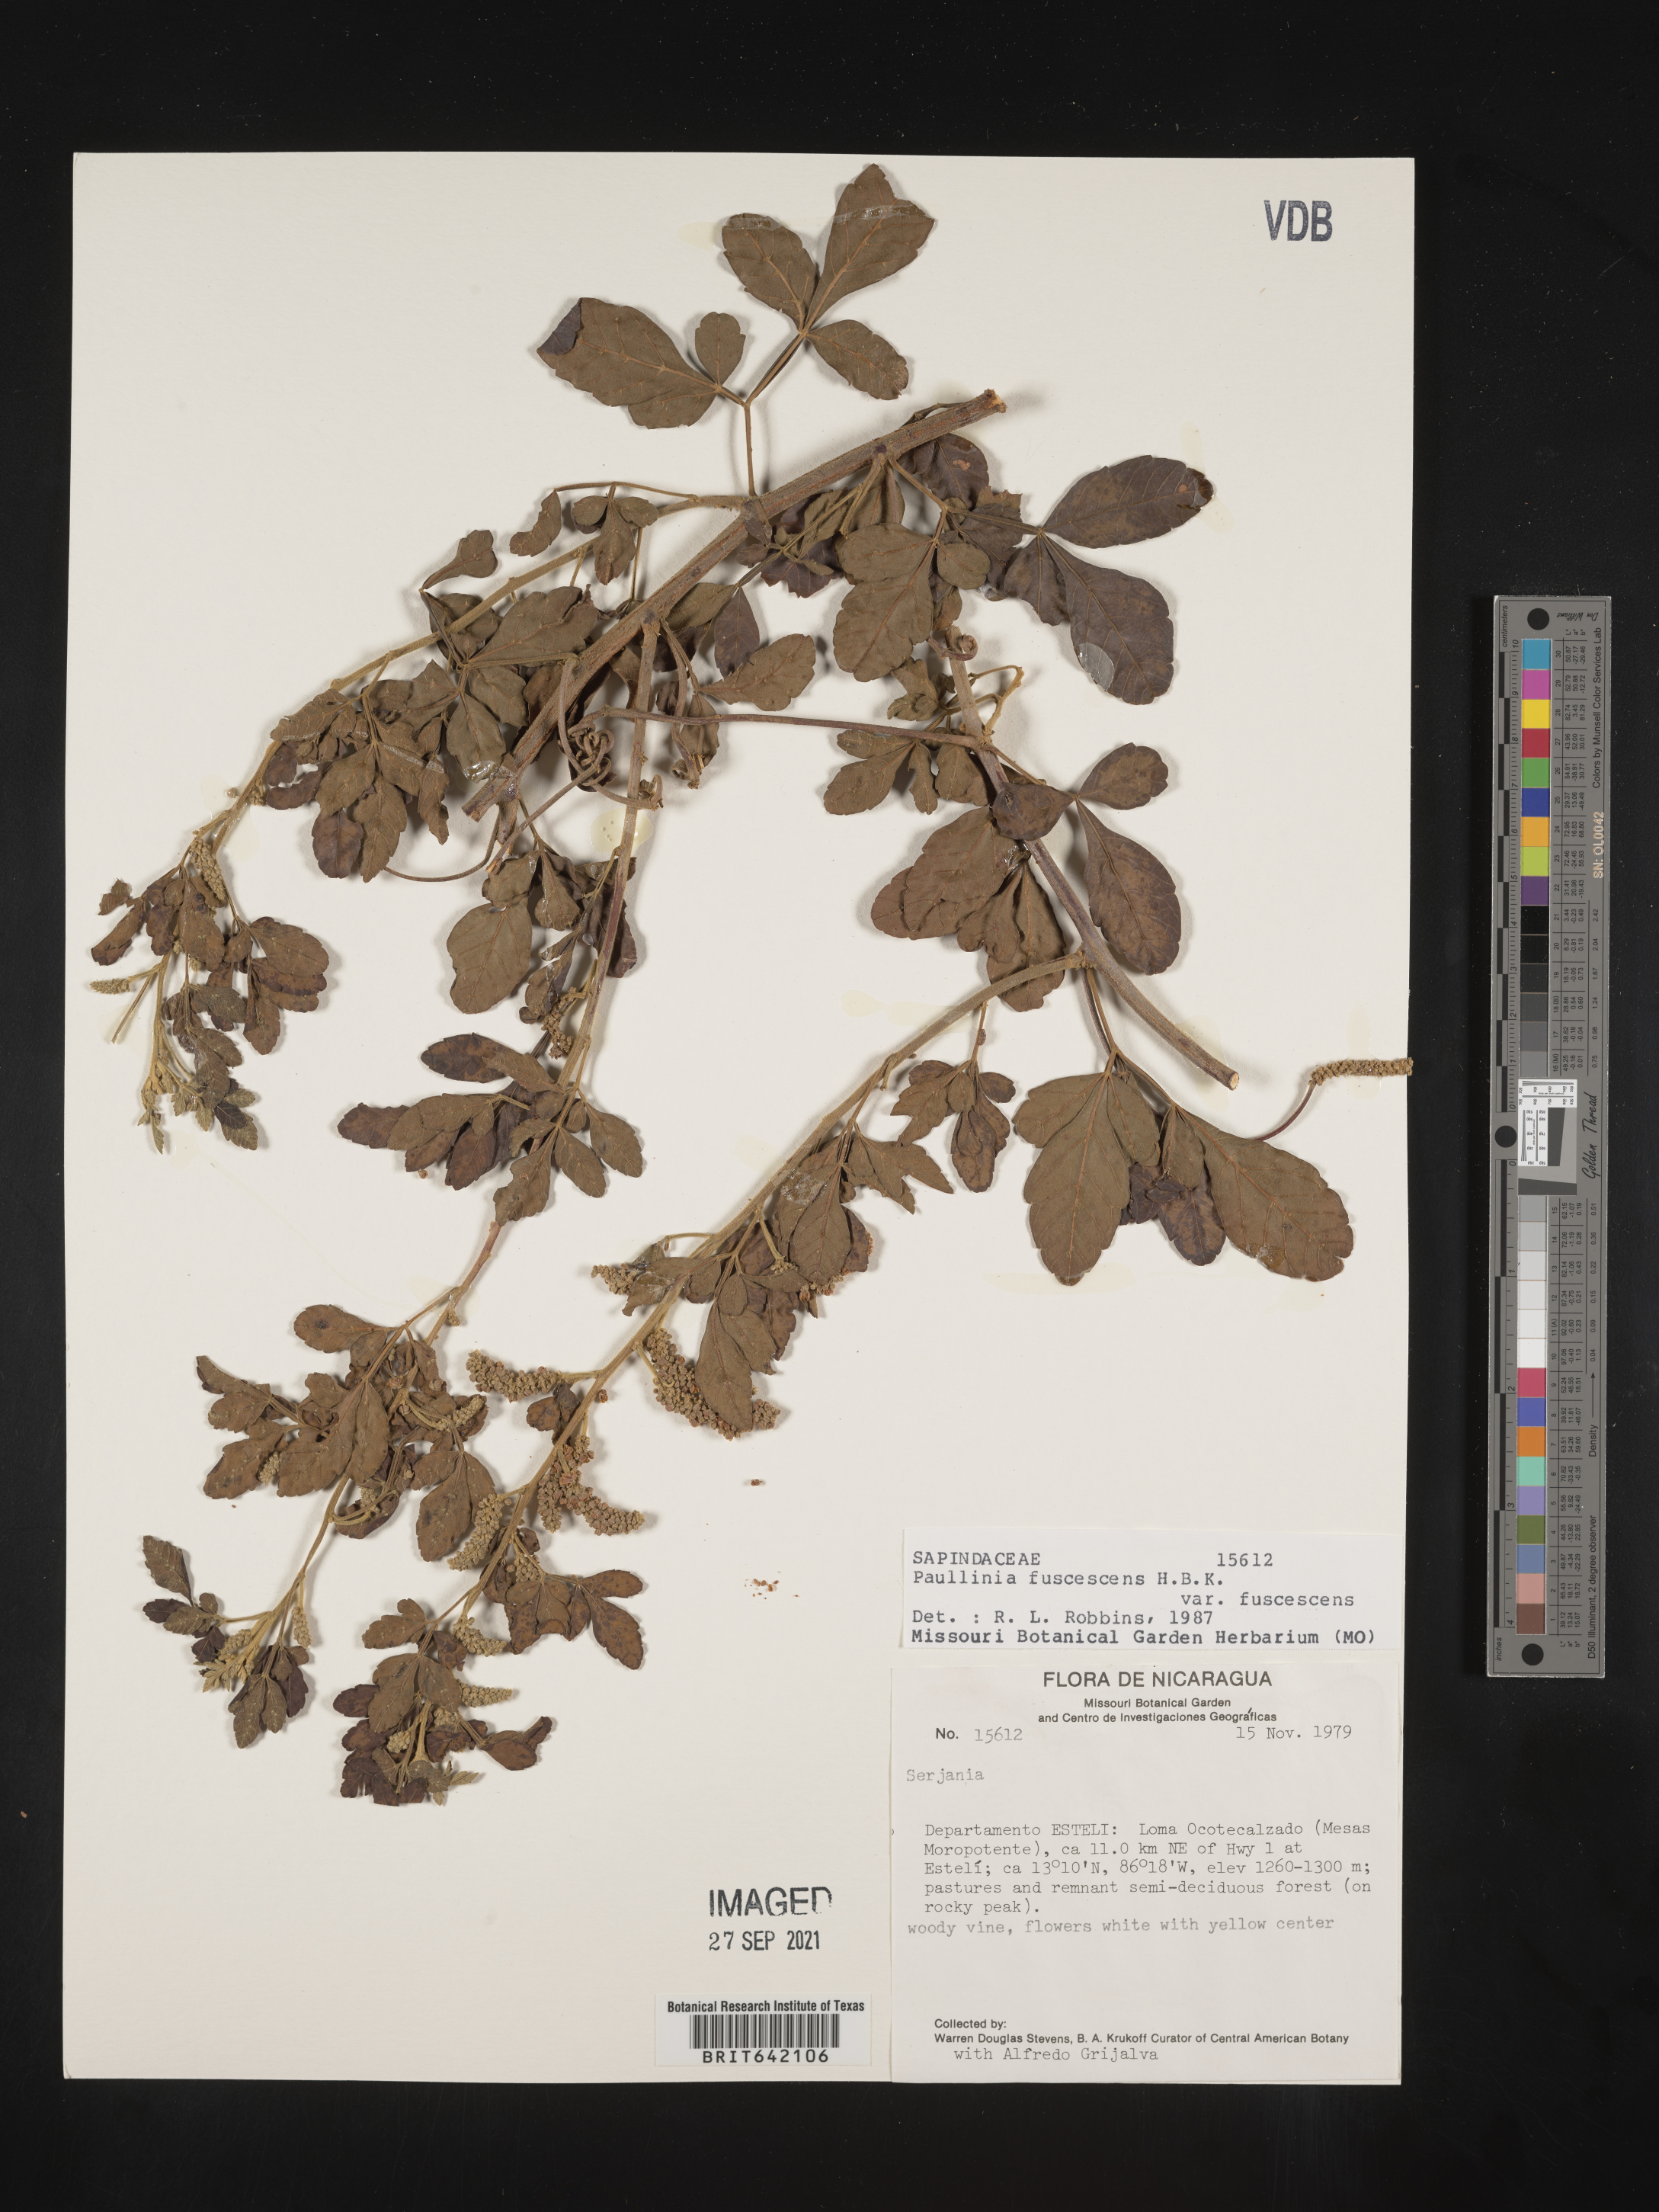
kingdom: Plantae
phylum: Tracheophyta
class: Magnoliopsida
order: Sapindales
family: Sapindaceae
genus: Paullinia
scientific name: Paullinia
